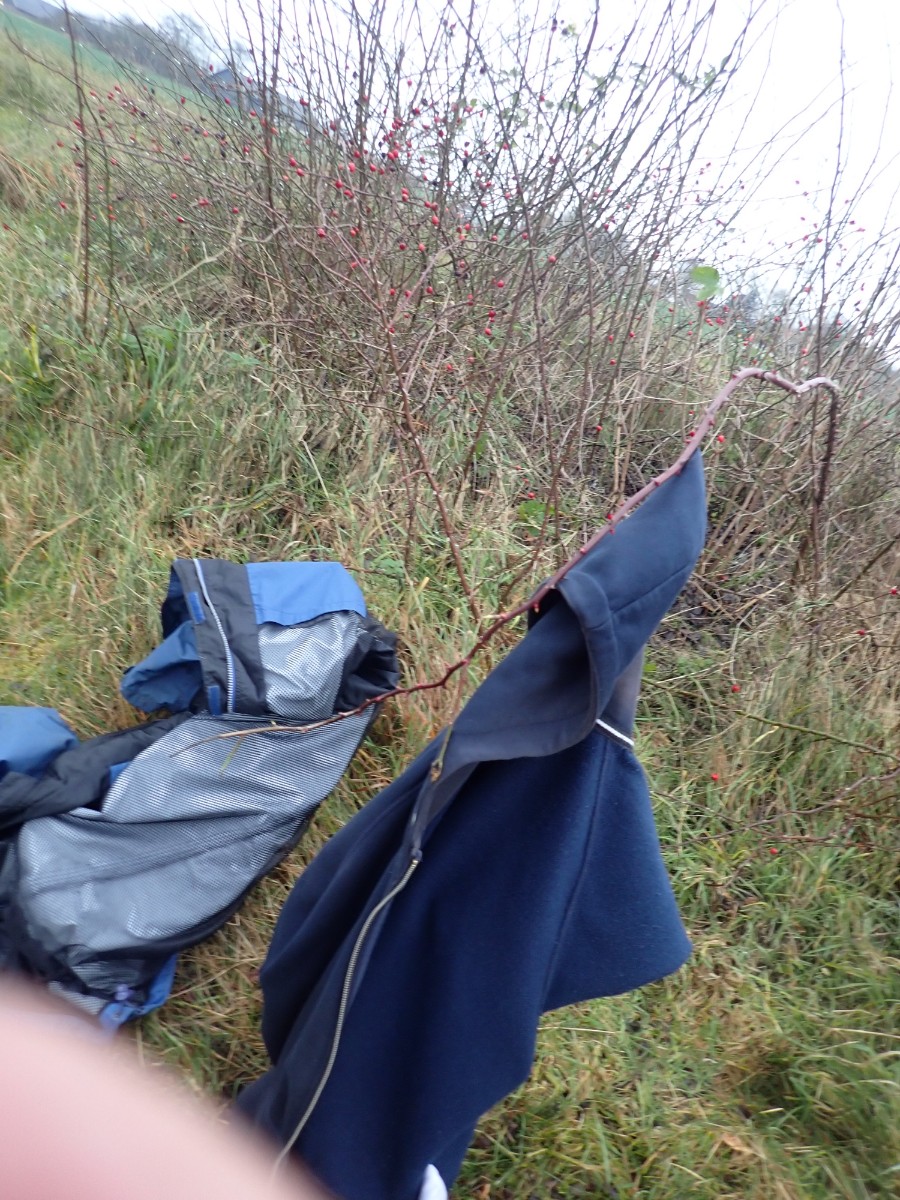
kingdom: Fungi
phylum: Ascomycota
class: Sordariomycetes
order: Xylariales
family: Xylariaceae
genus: Xylaria
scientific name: Xylaria hypoxylon
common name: grenet stødsvamp
